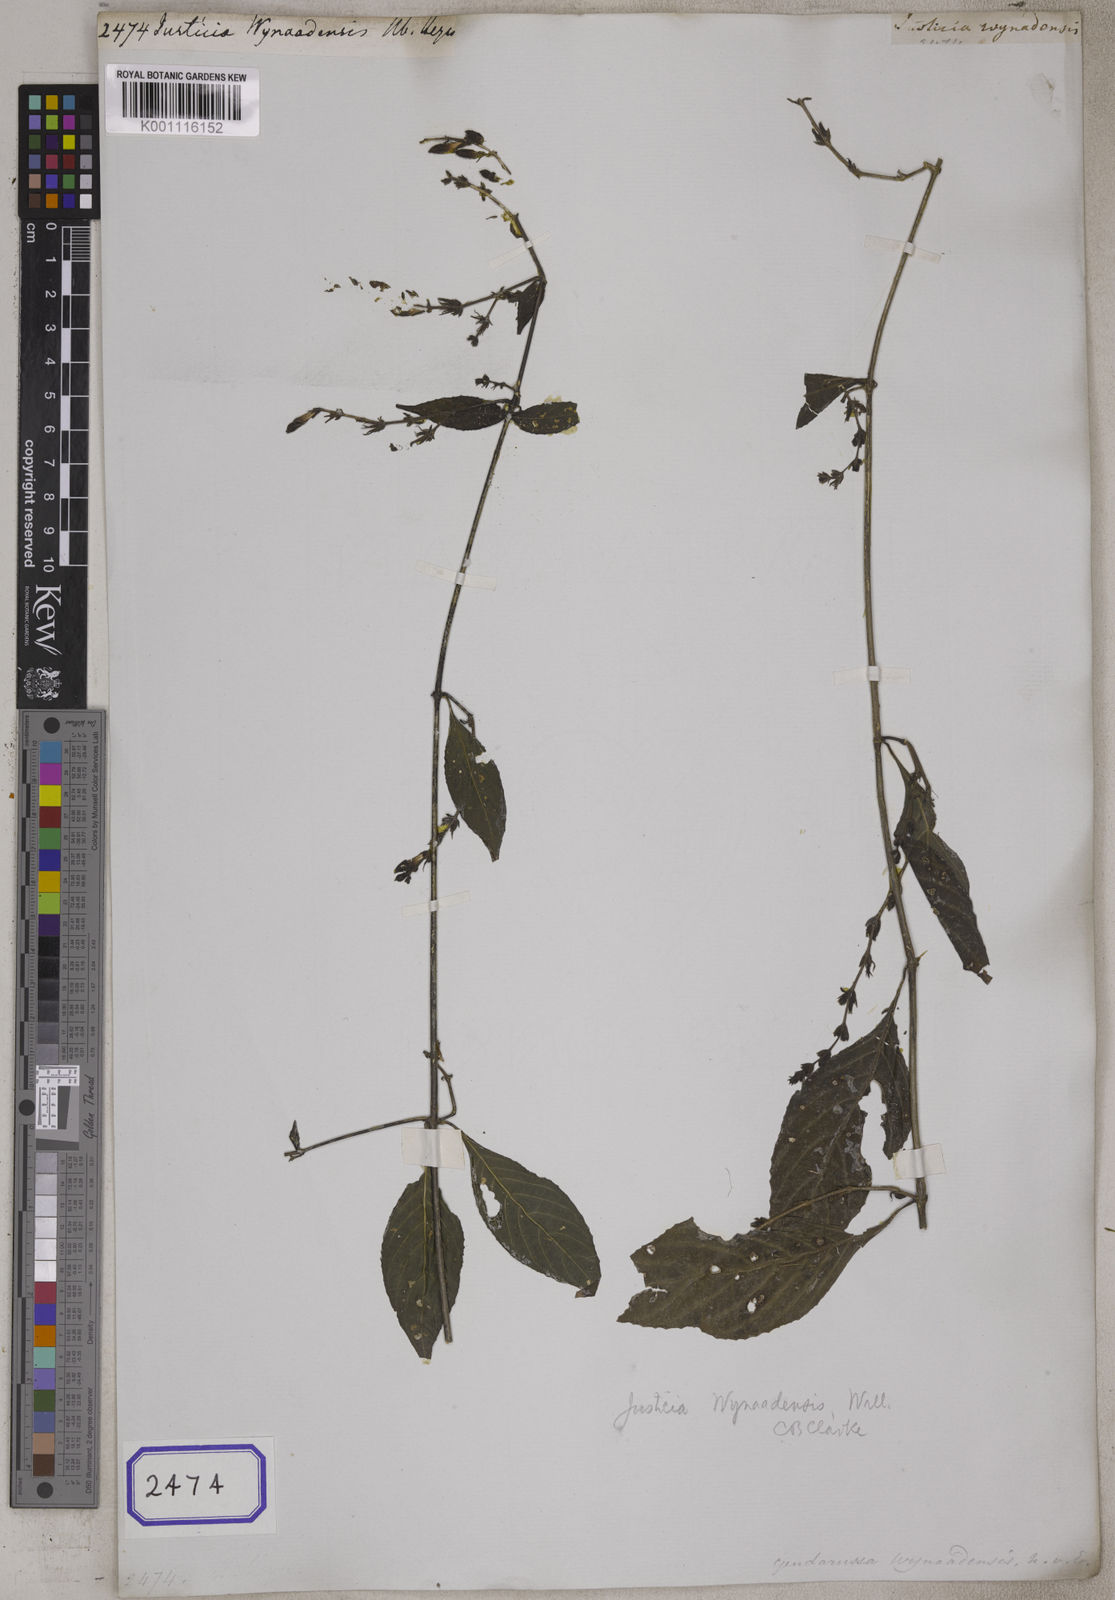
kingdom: Plantae
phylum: Tracheophyta
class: Magnoliopsida
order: Lamiales
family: Acanthaceae
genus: Justicia
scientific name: Justicia wynaadensis
